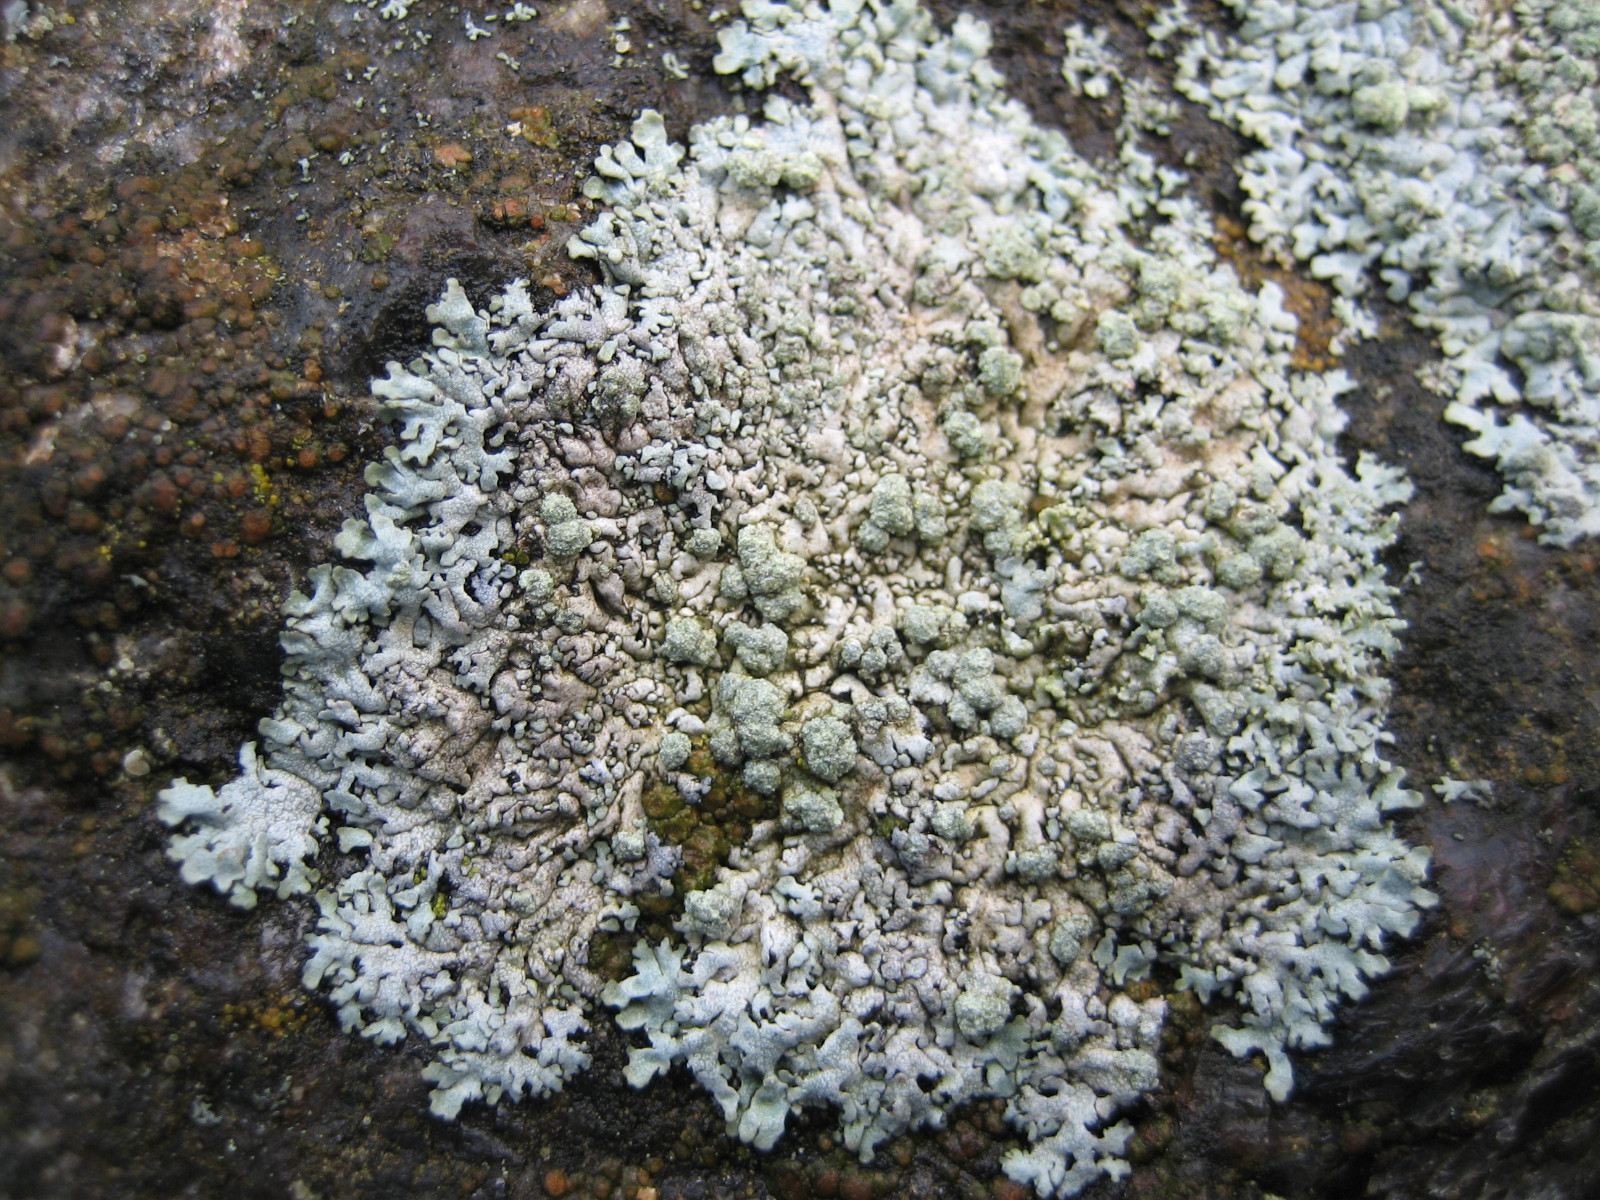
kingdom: Fungi
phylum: Ascomycota
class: Lecanoromycetes
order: Caliciales
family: Physciaceae
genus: Physcia
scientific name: Physcia caesia
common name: blågrå rosetlav
